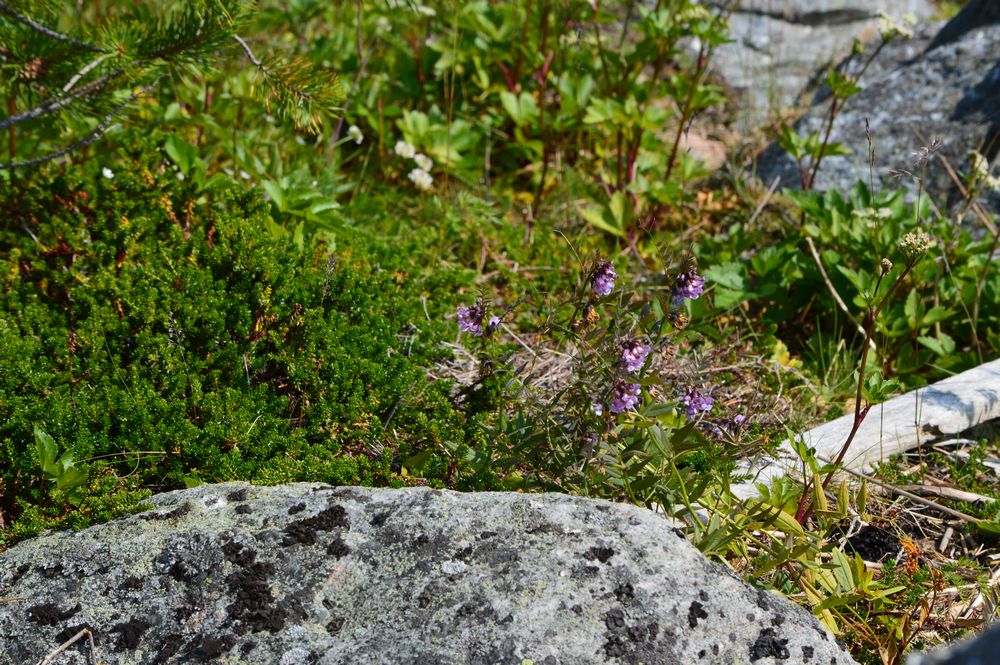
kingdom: Plantae
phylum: Tracheophyta
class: Magnoliopsida
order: Fabales
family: Fabaceae
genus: Vicia
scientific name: Vicia sepium
